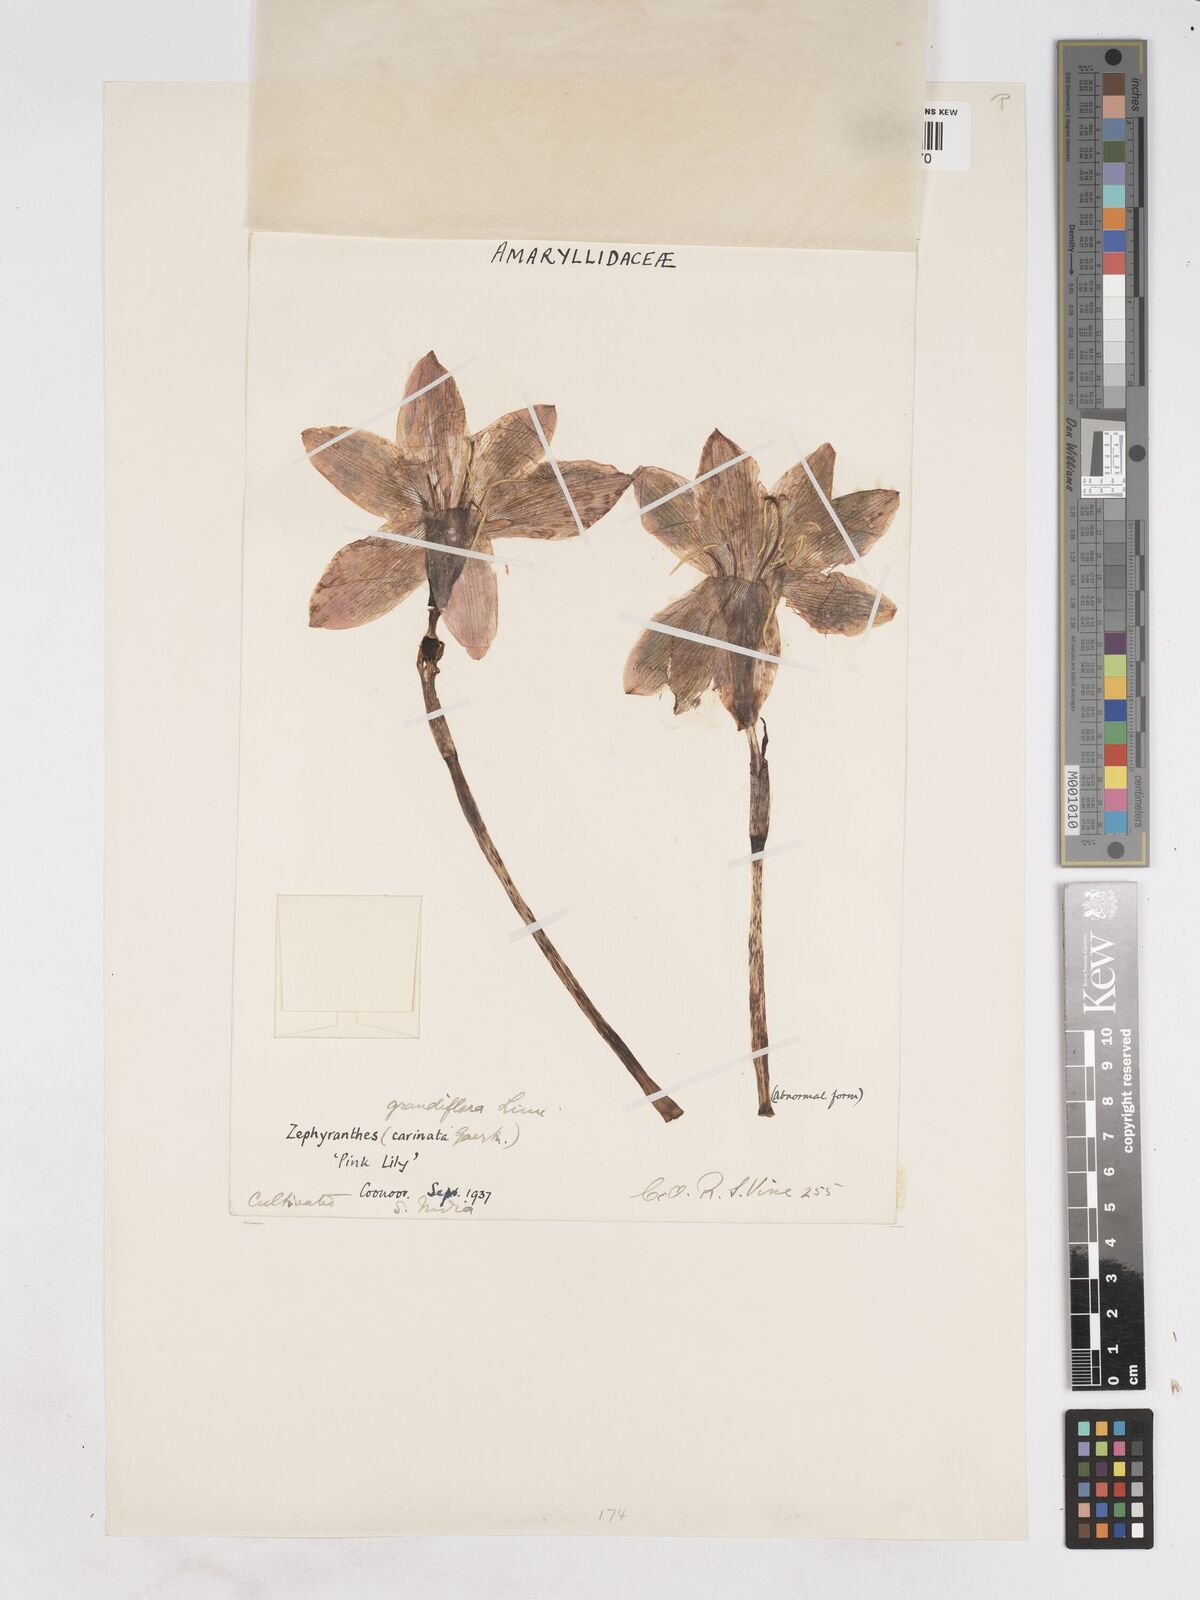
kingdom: Plantae
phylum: Tracheophyta
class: Liliopsida
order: Asparagales
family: Amaryllidaceae
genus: Zephyranthes
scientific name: Zephyranthes minuta
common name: Pink rain lily
